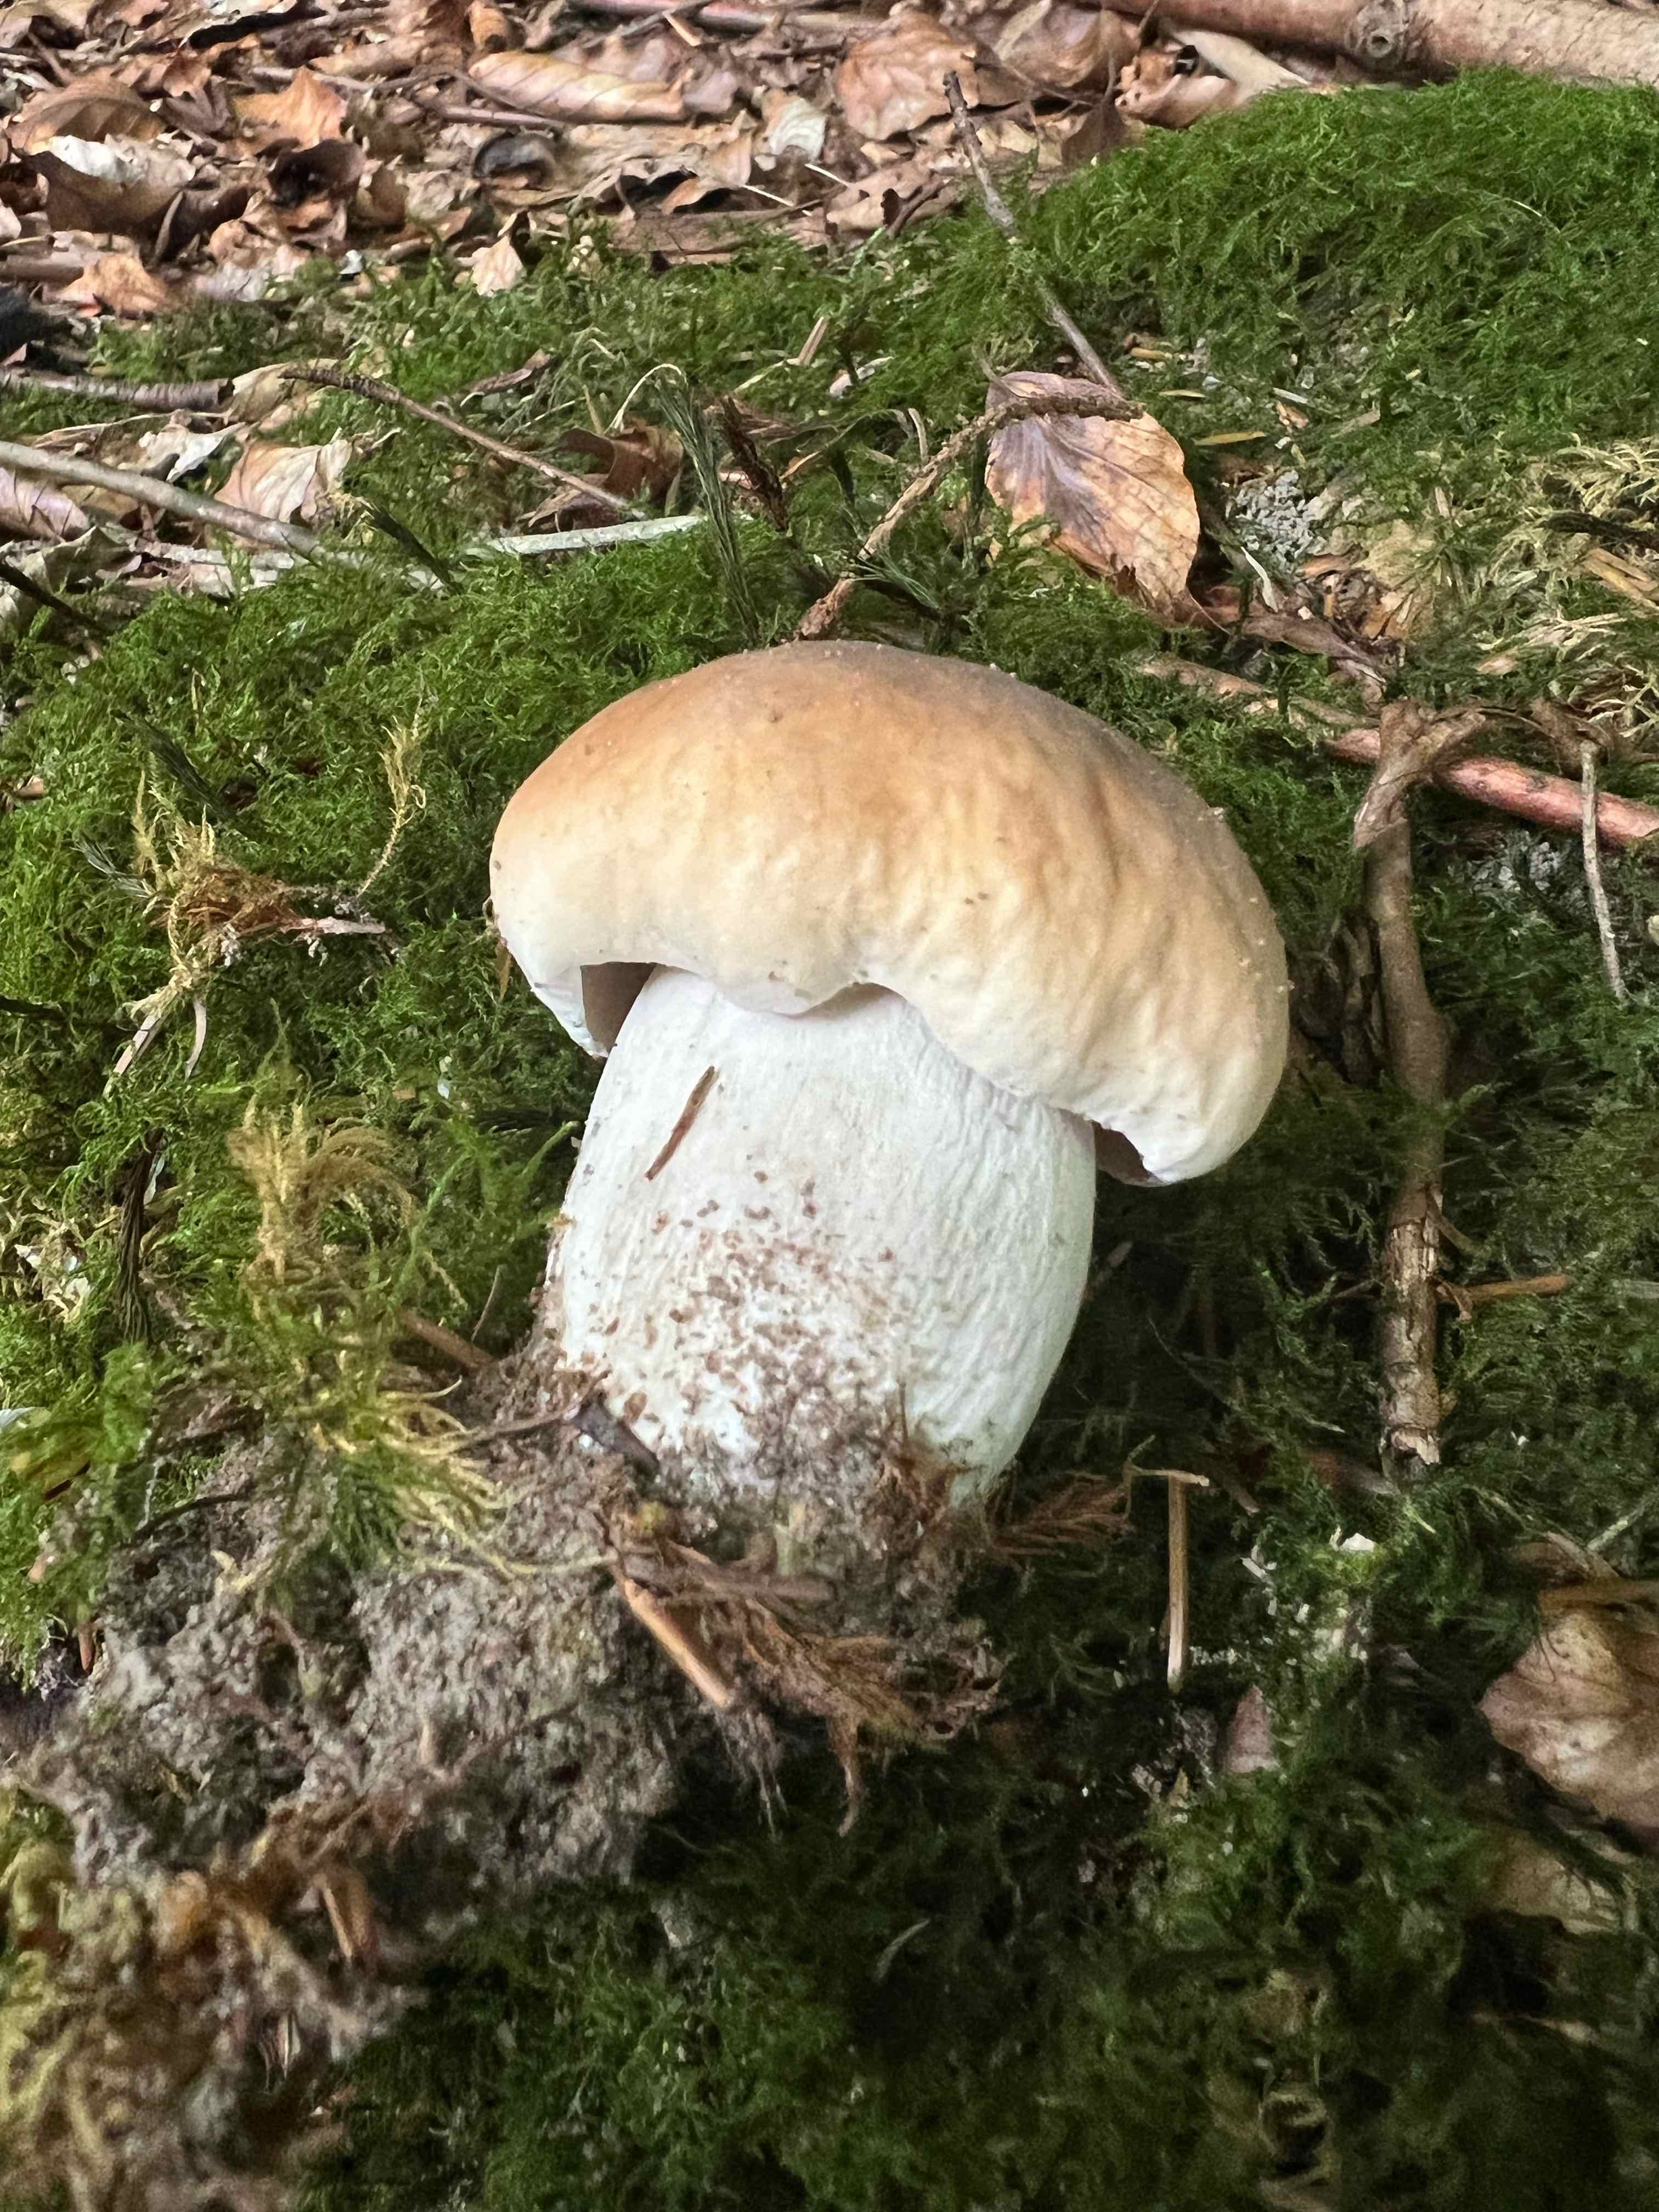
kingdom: Fungi
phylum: Basidiomycota
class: Agaricomycetes
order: Boletales
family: Boletaceae
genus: Boletus
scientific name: Boletus edulis
